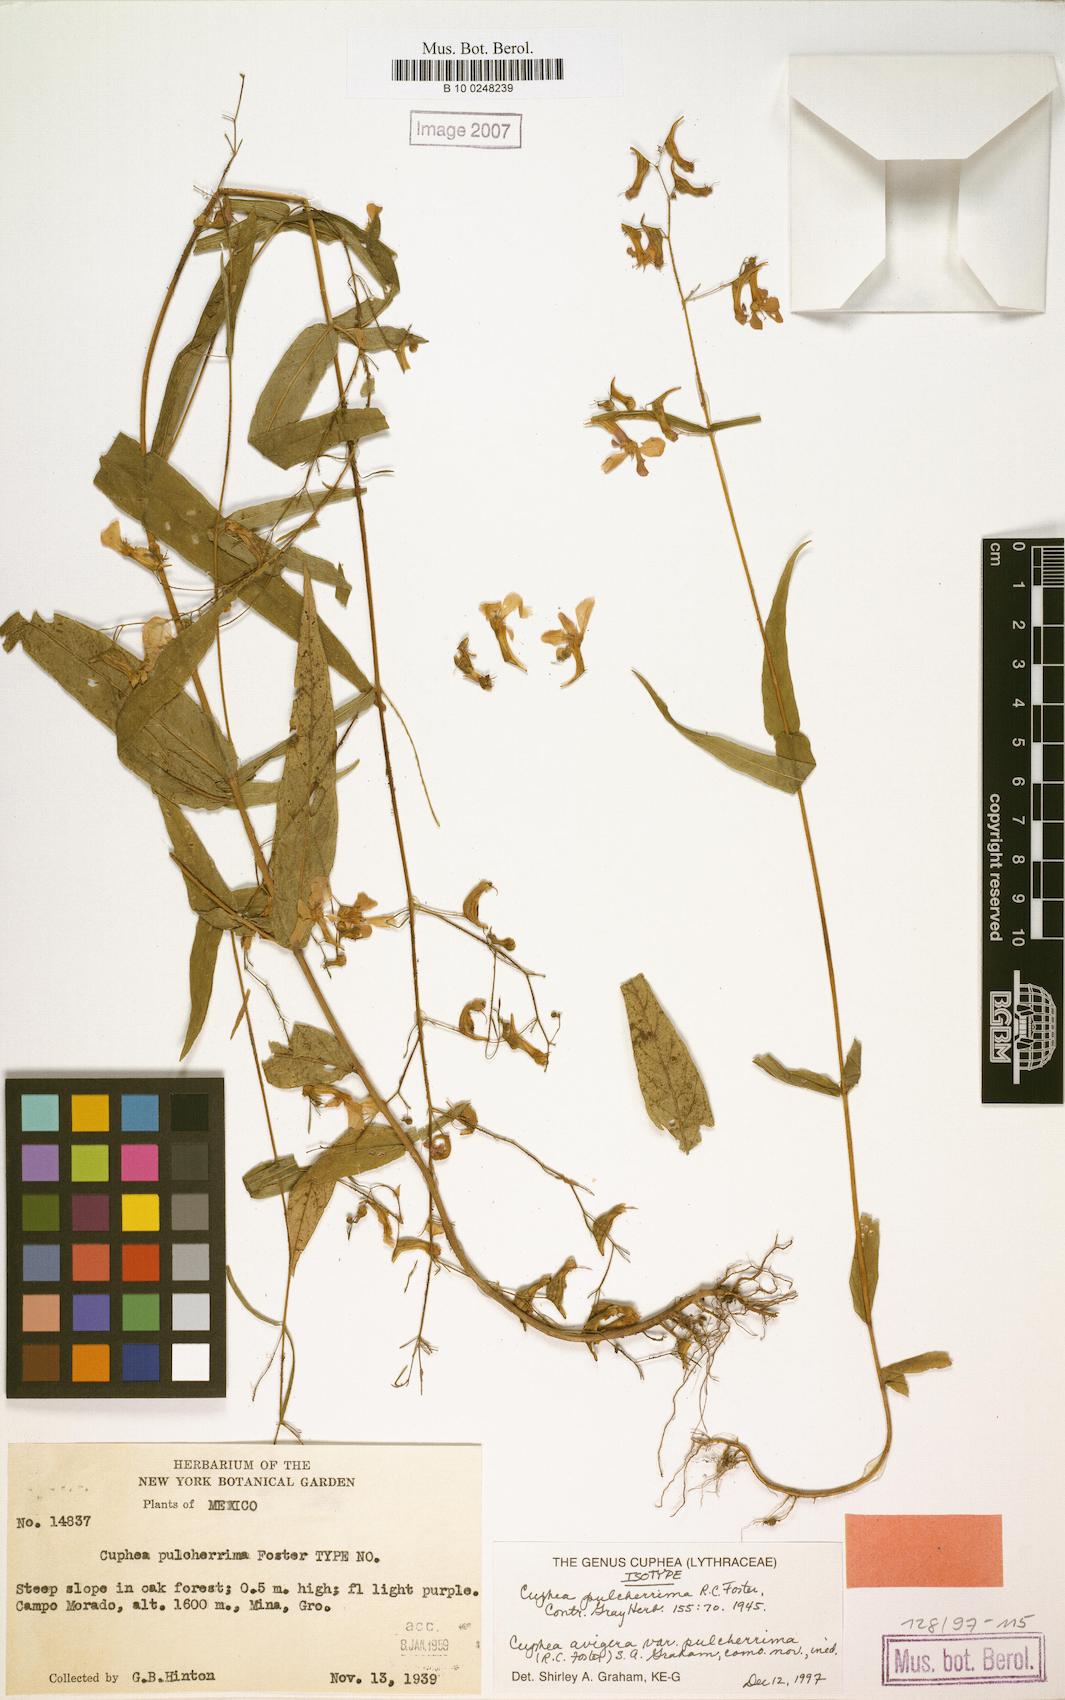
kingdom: Plantae
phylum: Tracheophyta
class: Magnoliopsida
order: Myrtales
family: Lythraceae
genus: Cuphea
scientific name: Cuphea avigera
